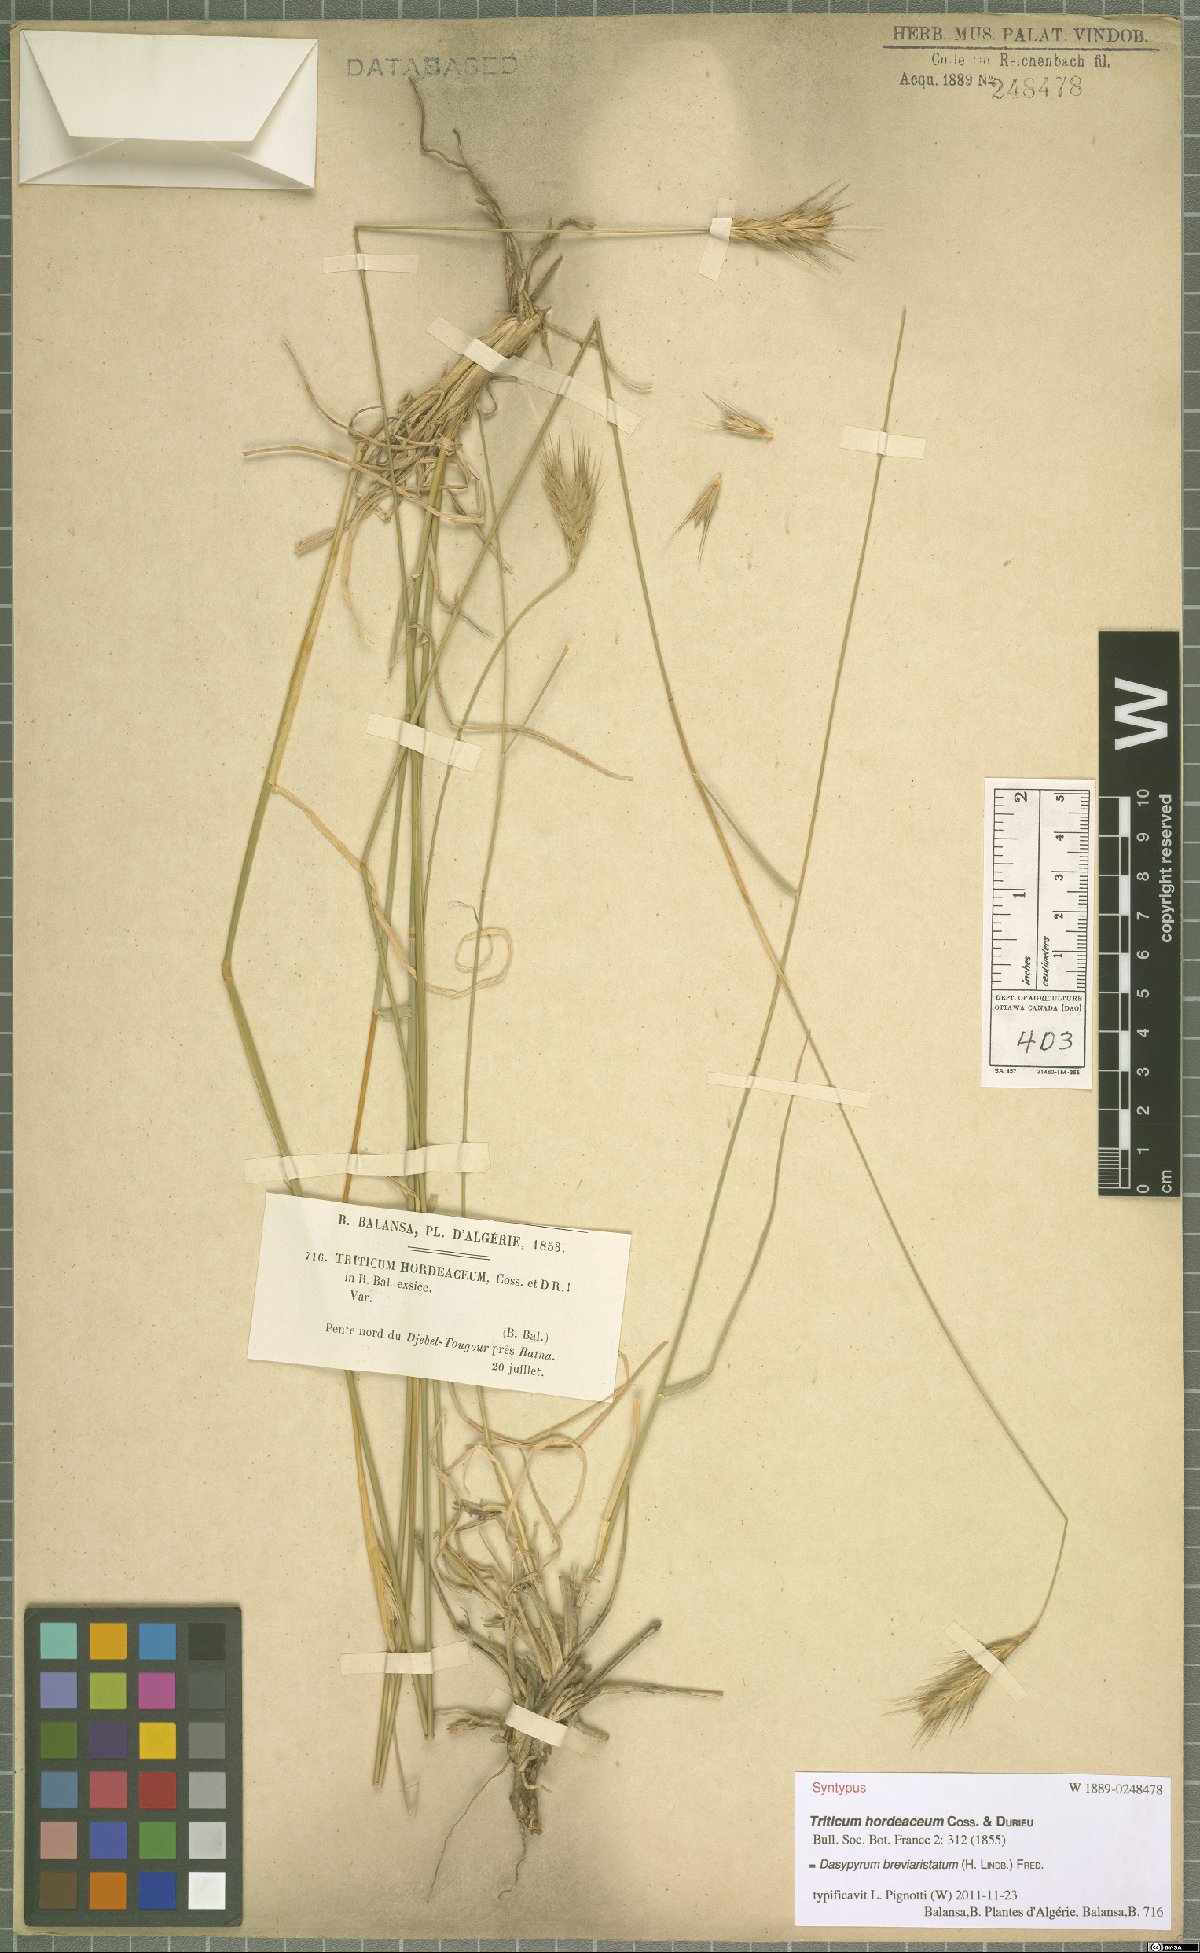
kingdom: Plantae
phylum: Tracheophyta
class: Liliopsida
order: Poales
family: Poaceae
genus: Dasypyrum
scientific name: Dasypyrum hordeaceum
